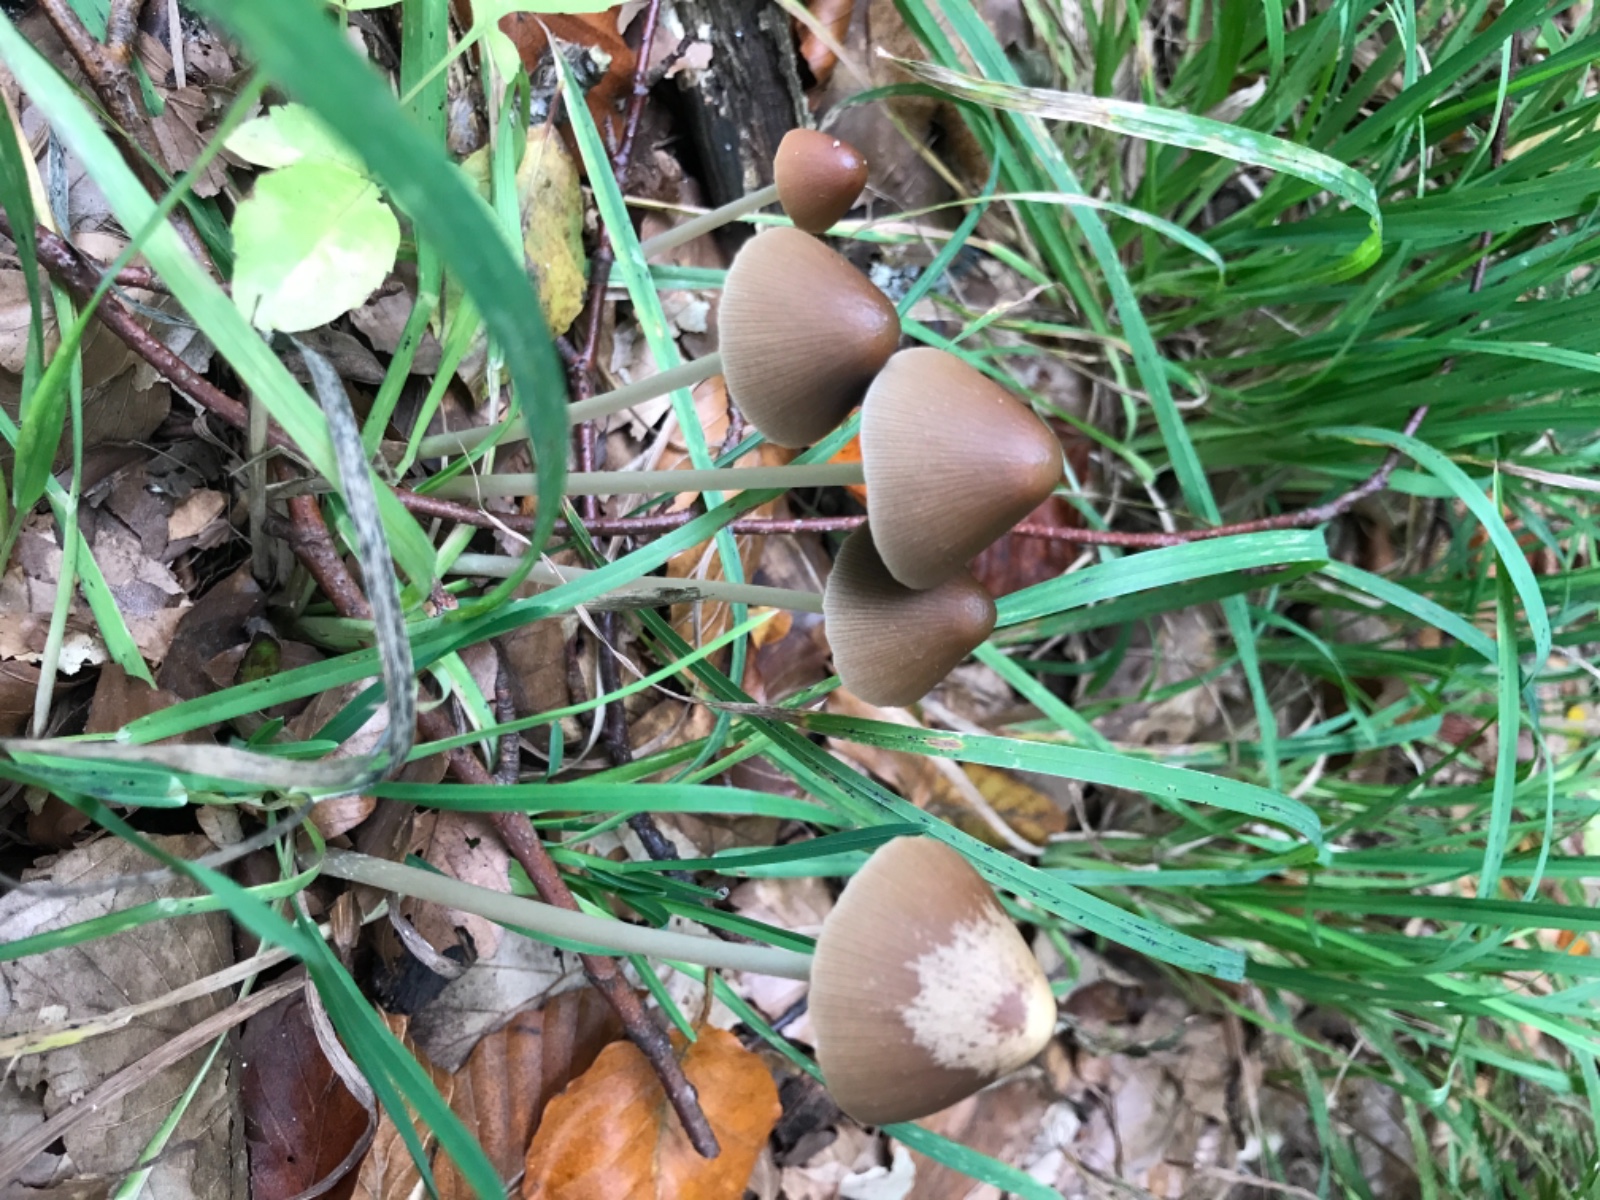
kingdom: Fungi
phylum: Basidiomycota
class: Agaricomycetes
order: Agaricales
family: Psathyrellaceae
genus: Parasola
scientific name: Parasola conopilea
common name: kegle-hjulhat
